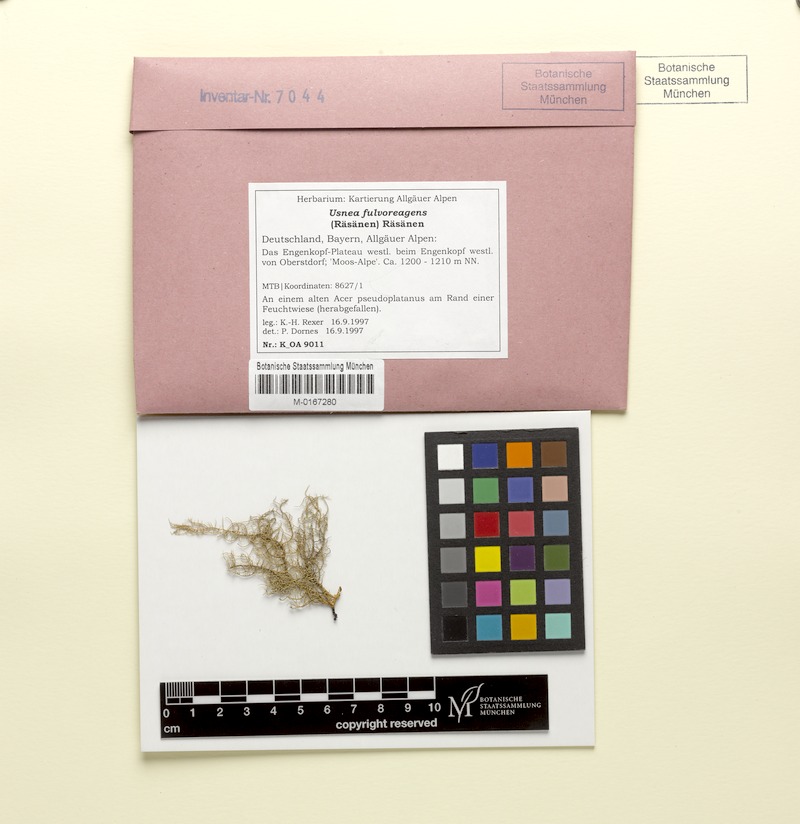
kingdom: Fungi
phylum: Ascomycota
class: Lecanoromycetes
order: Lecanorales
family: Parmeliaceae
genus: Usnea
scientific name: Usnea fulvoreagens
